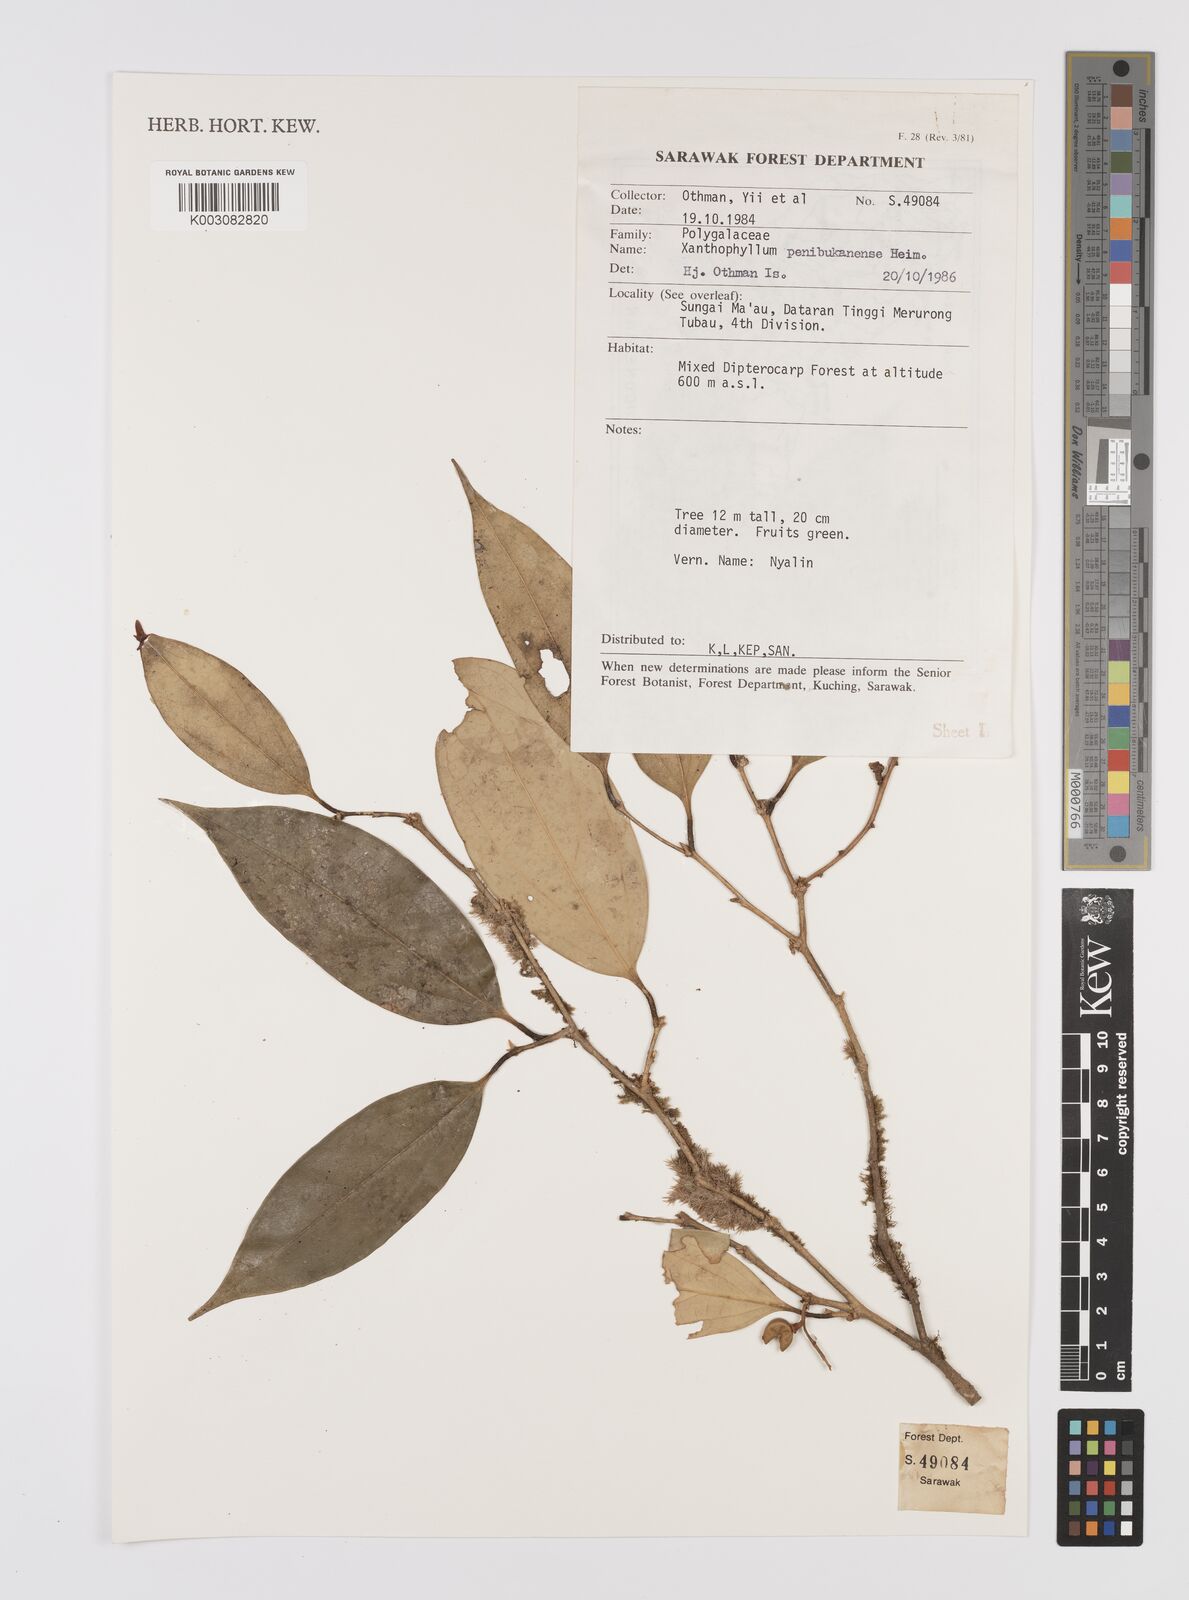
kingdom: Plantae
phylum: Tracheophyta
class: Magnoliopsida
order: Fabales
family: Polygalaceae
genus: Xanthophyllum
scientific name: Xanthophyllum penibukanense
